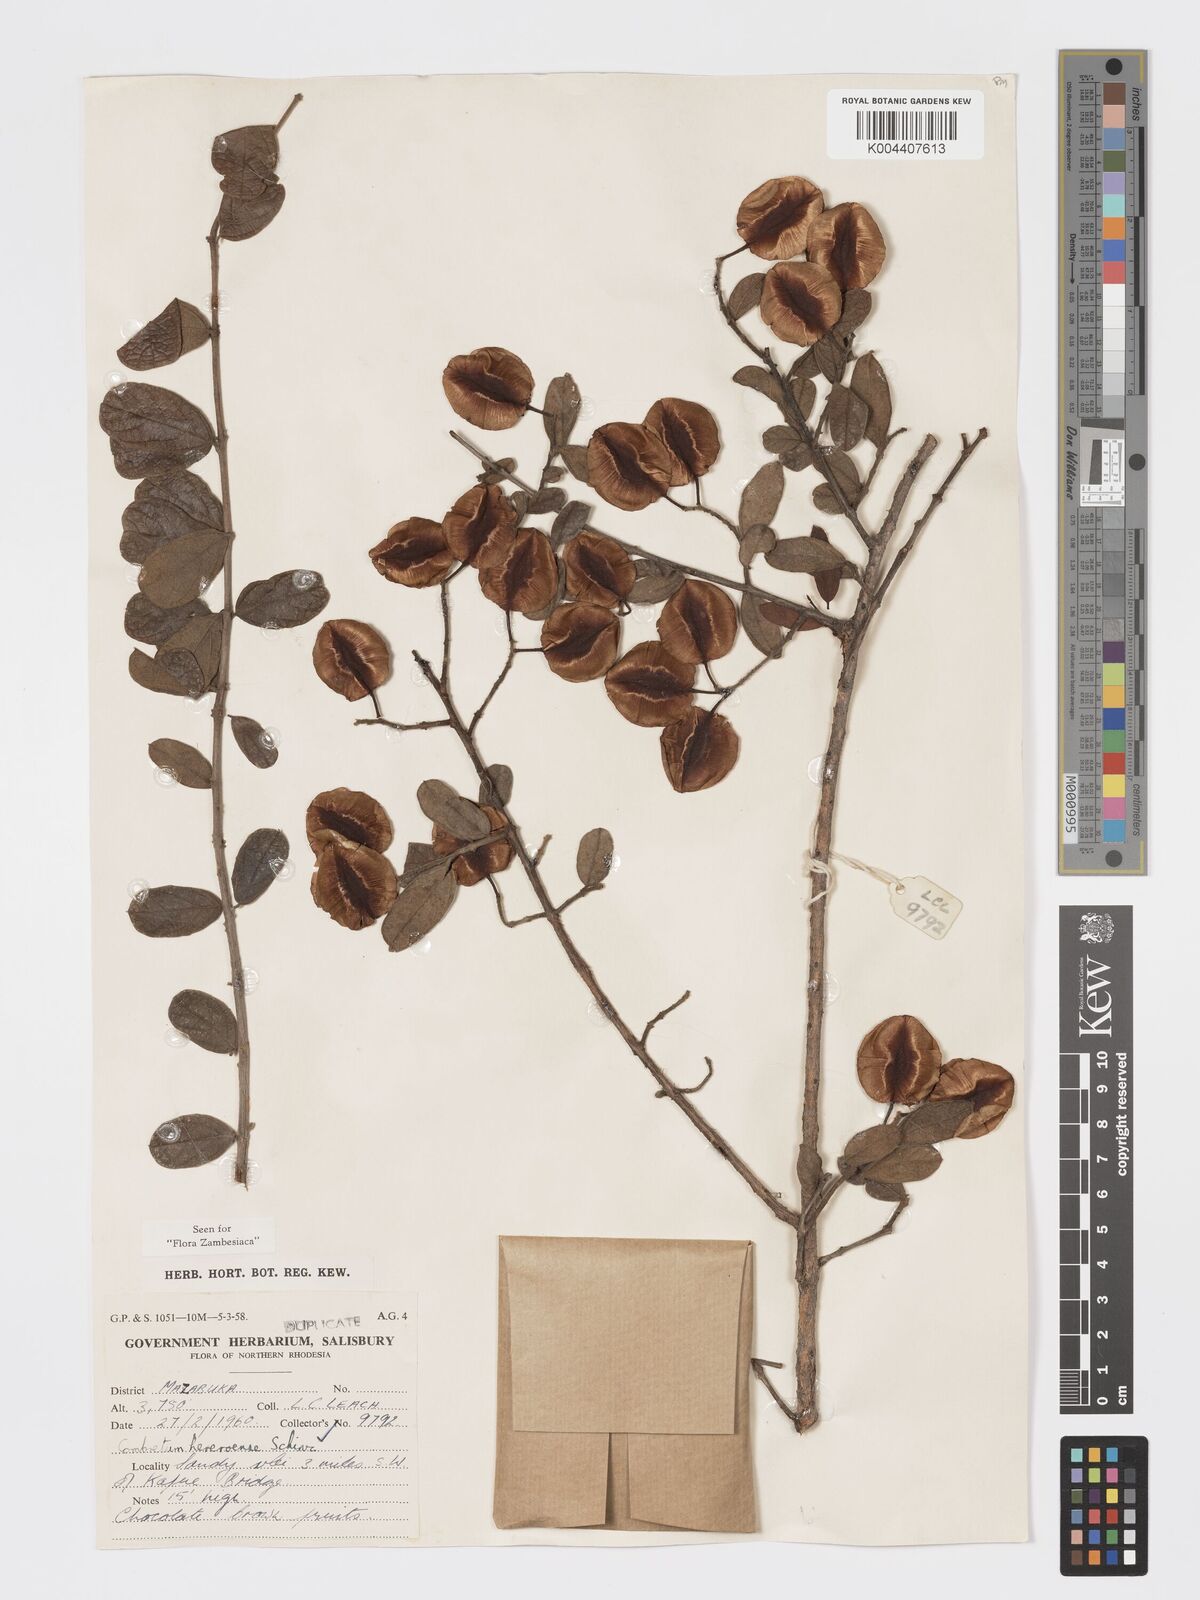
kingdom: Plantae
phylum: Tracheophyta
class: Magnoliopsida
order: Myrtales
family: Combretaceae
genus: Combretum
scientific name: Combretum hereroense
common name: Russet bushwillow
